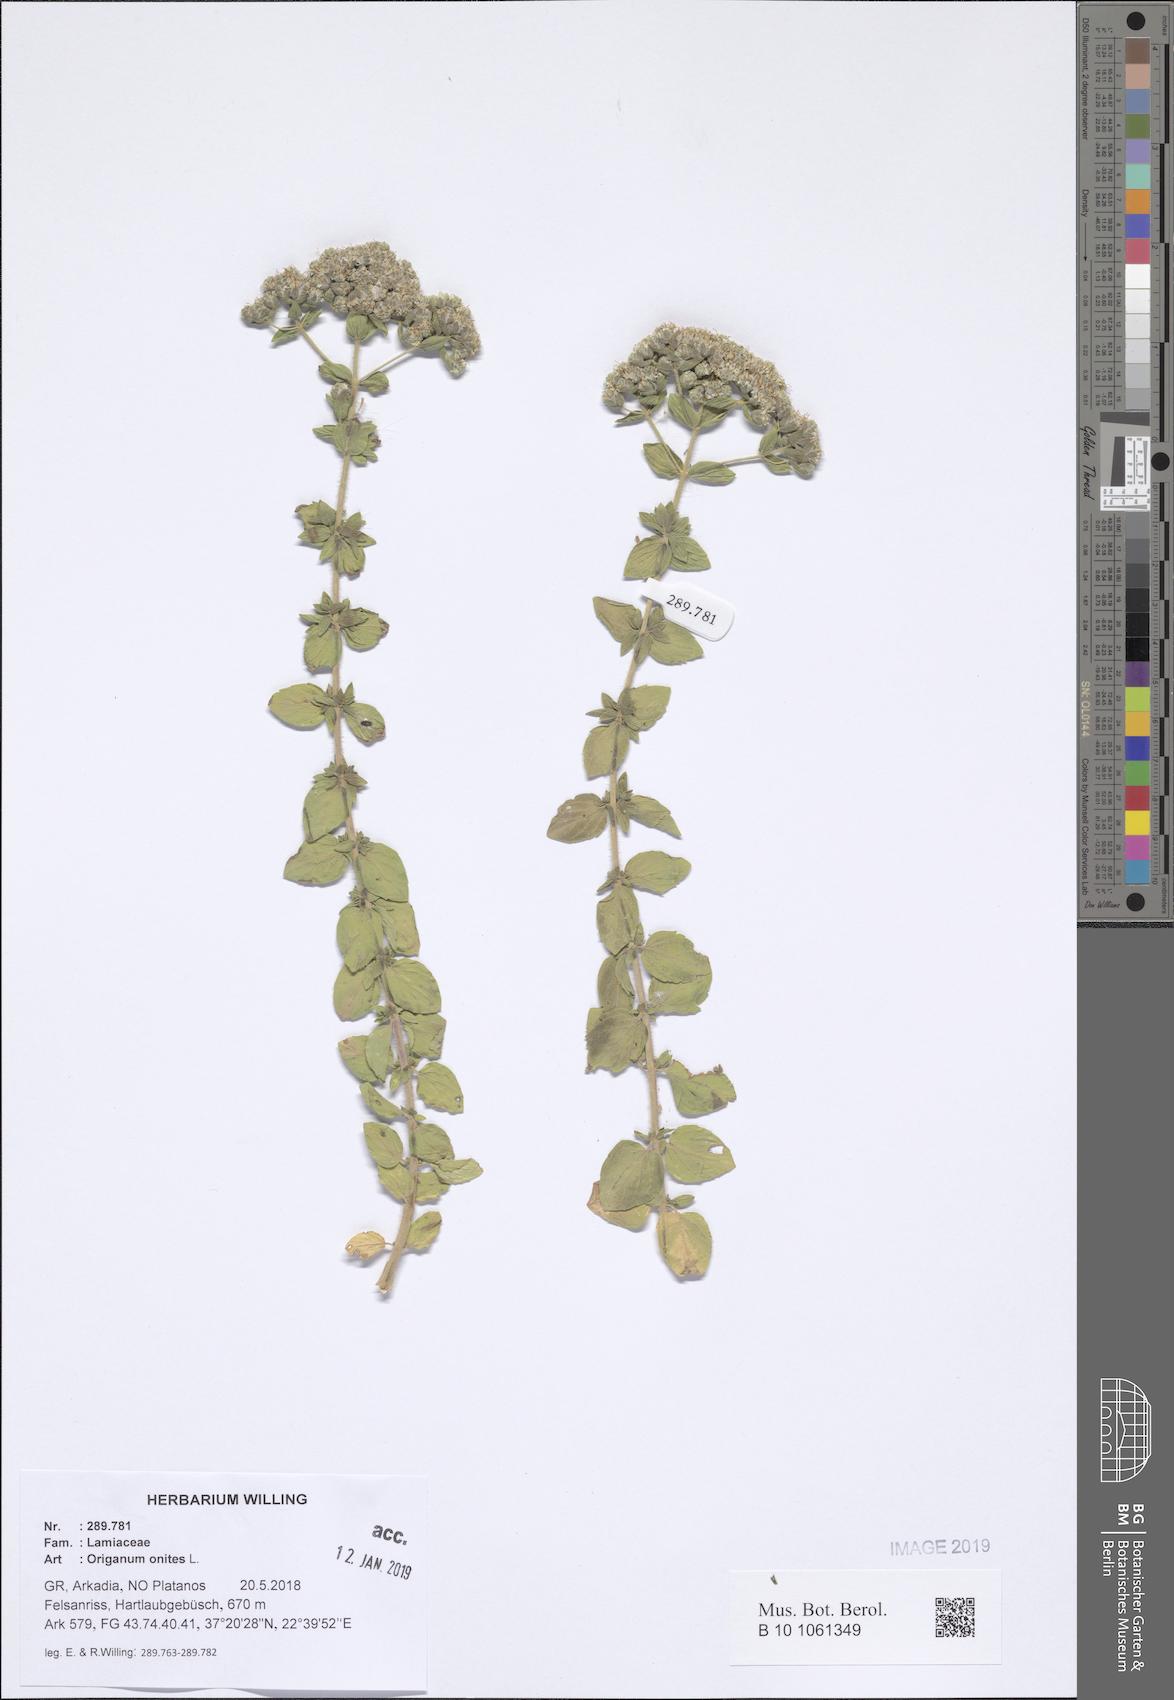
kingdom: Plantae
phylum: Tracheophyta
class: Magnoliopsida
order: Lamiales
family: Lamiaceae
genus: Origanum
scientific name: Origanum onites
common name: Turkish oregano
